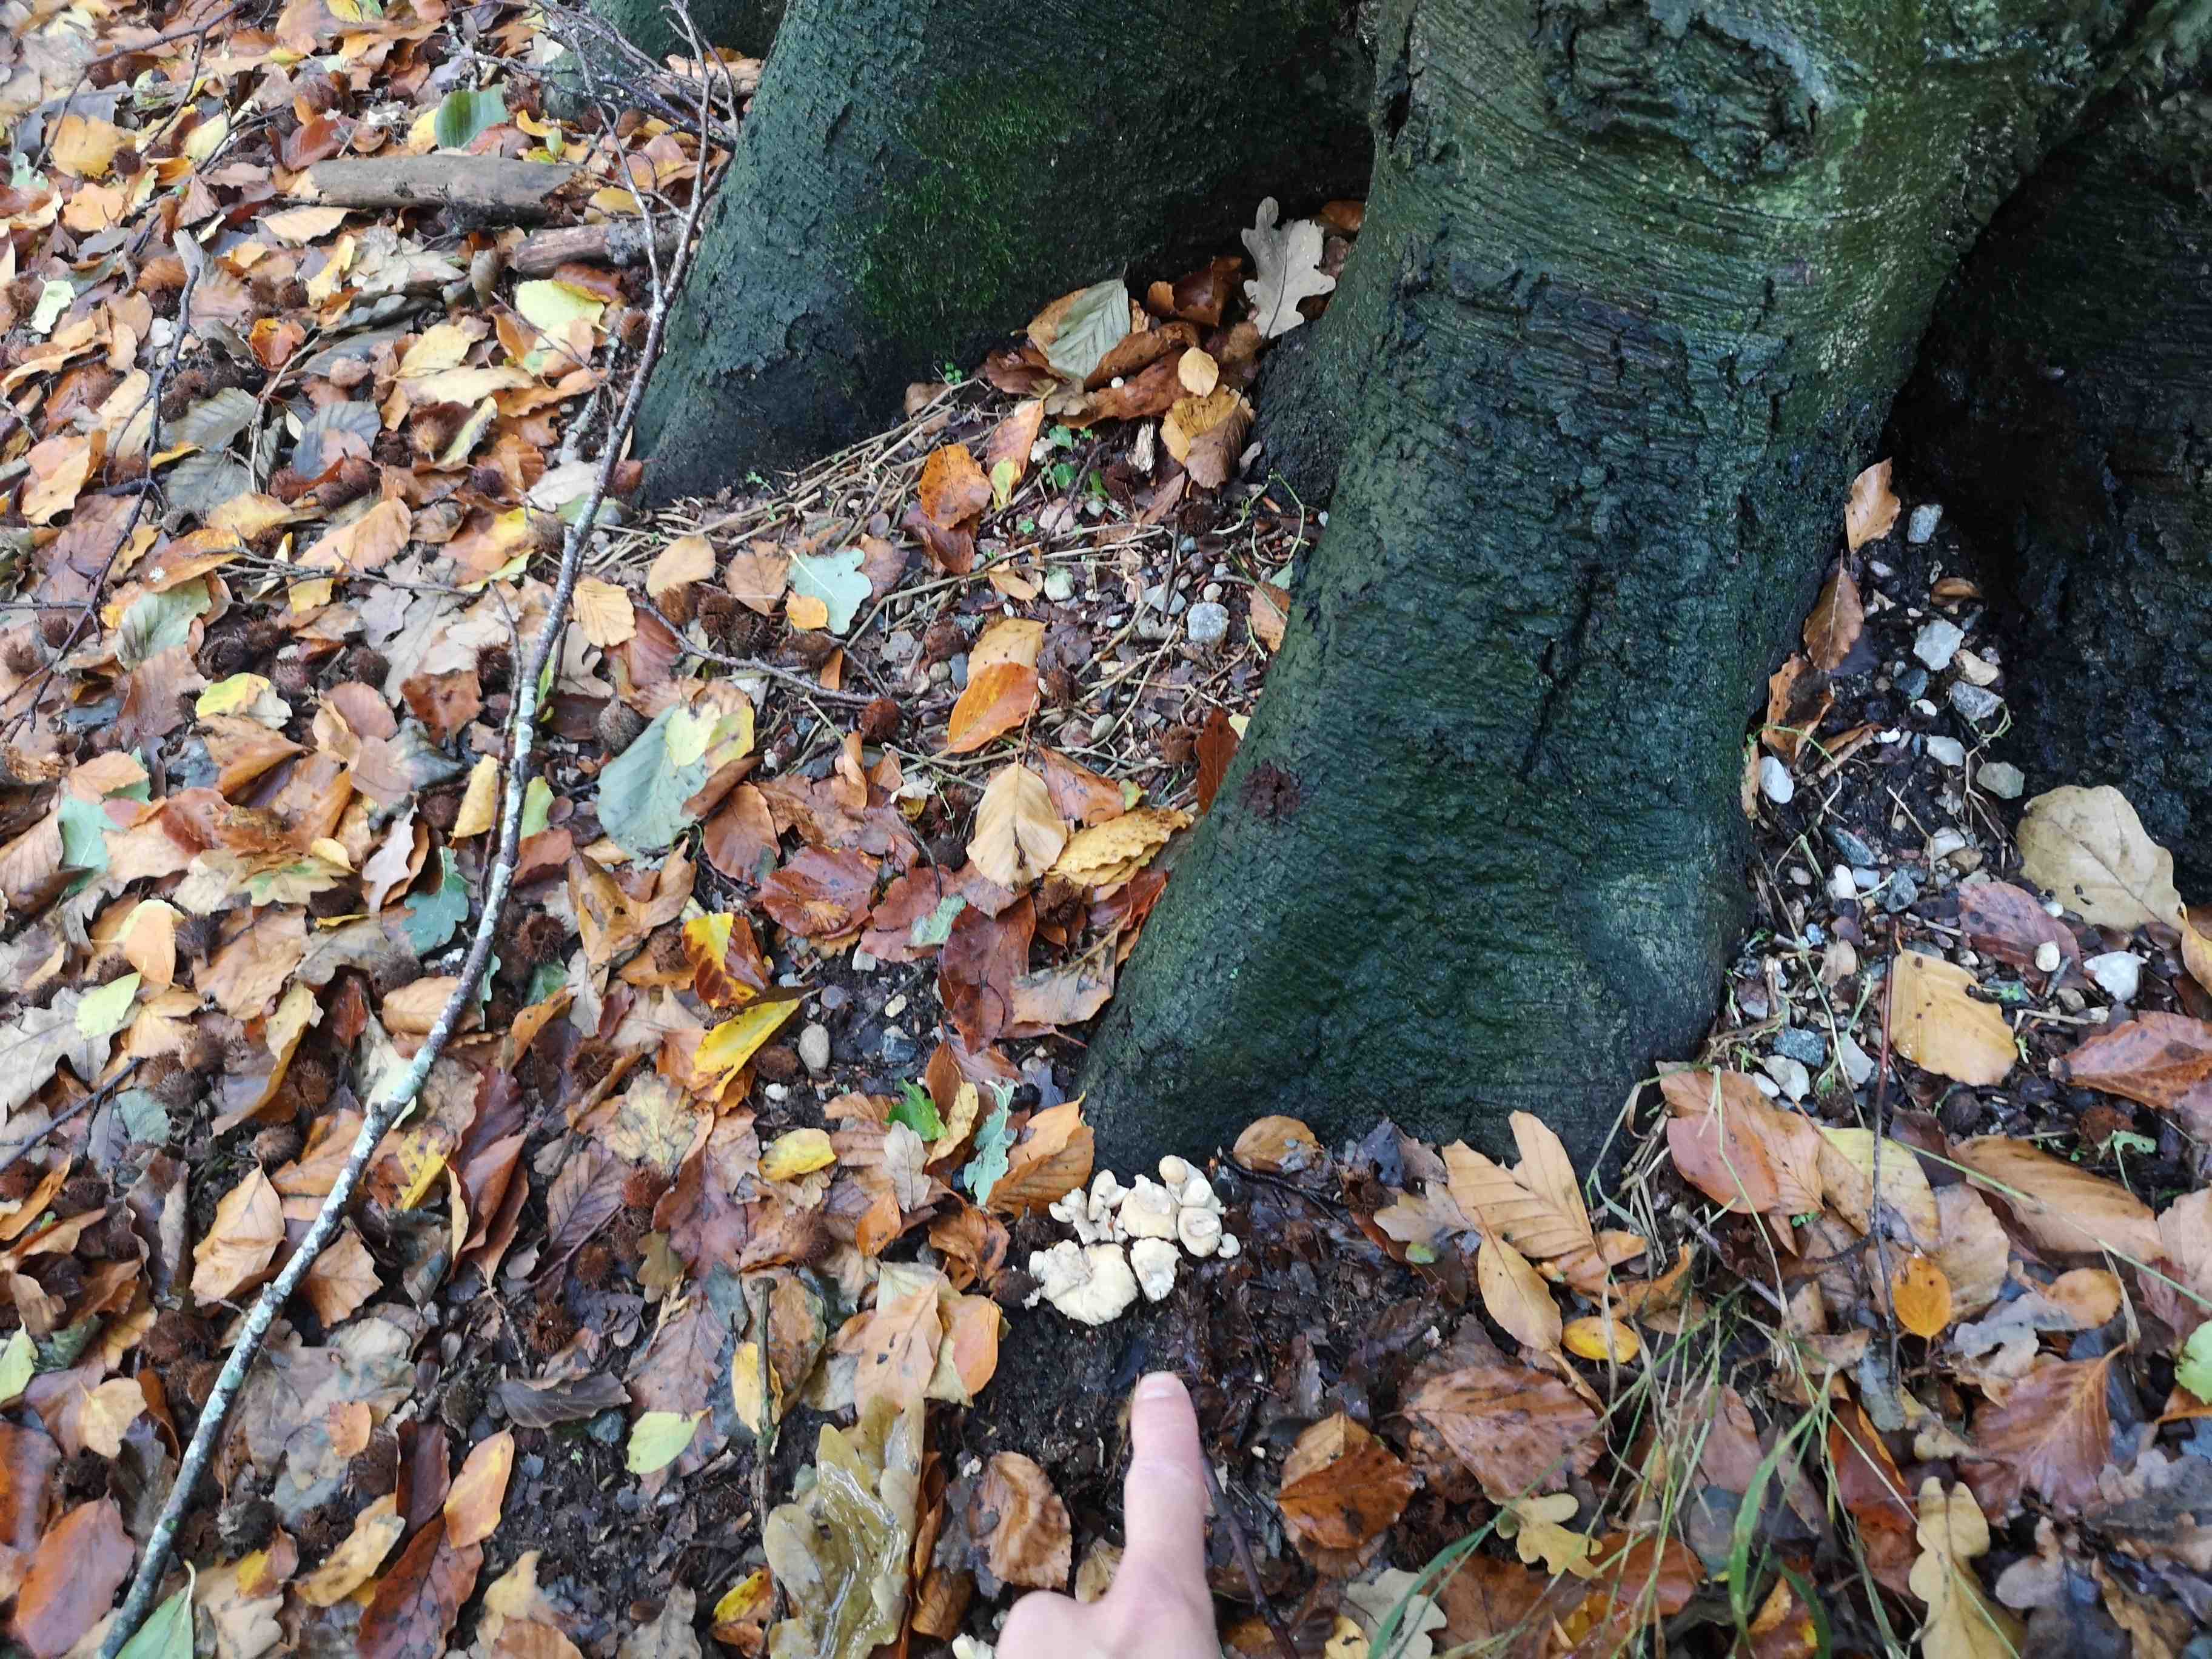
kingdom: Fungi
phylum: Basidiomycota
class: Agaricomycetes
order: Agaricales
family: Lycoperdaceae
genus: Apioperdon
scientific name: Apioperdon pyriforme
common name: pære-støvbold
